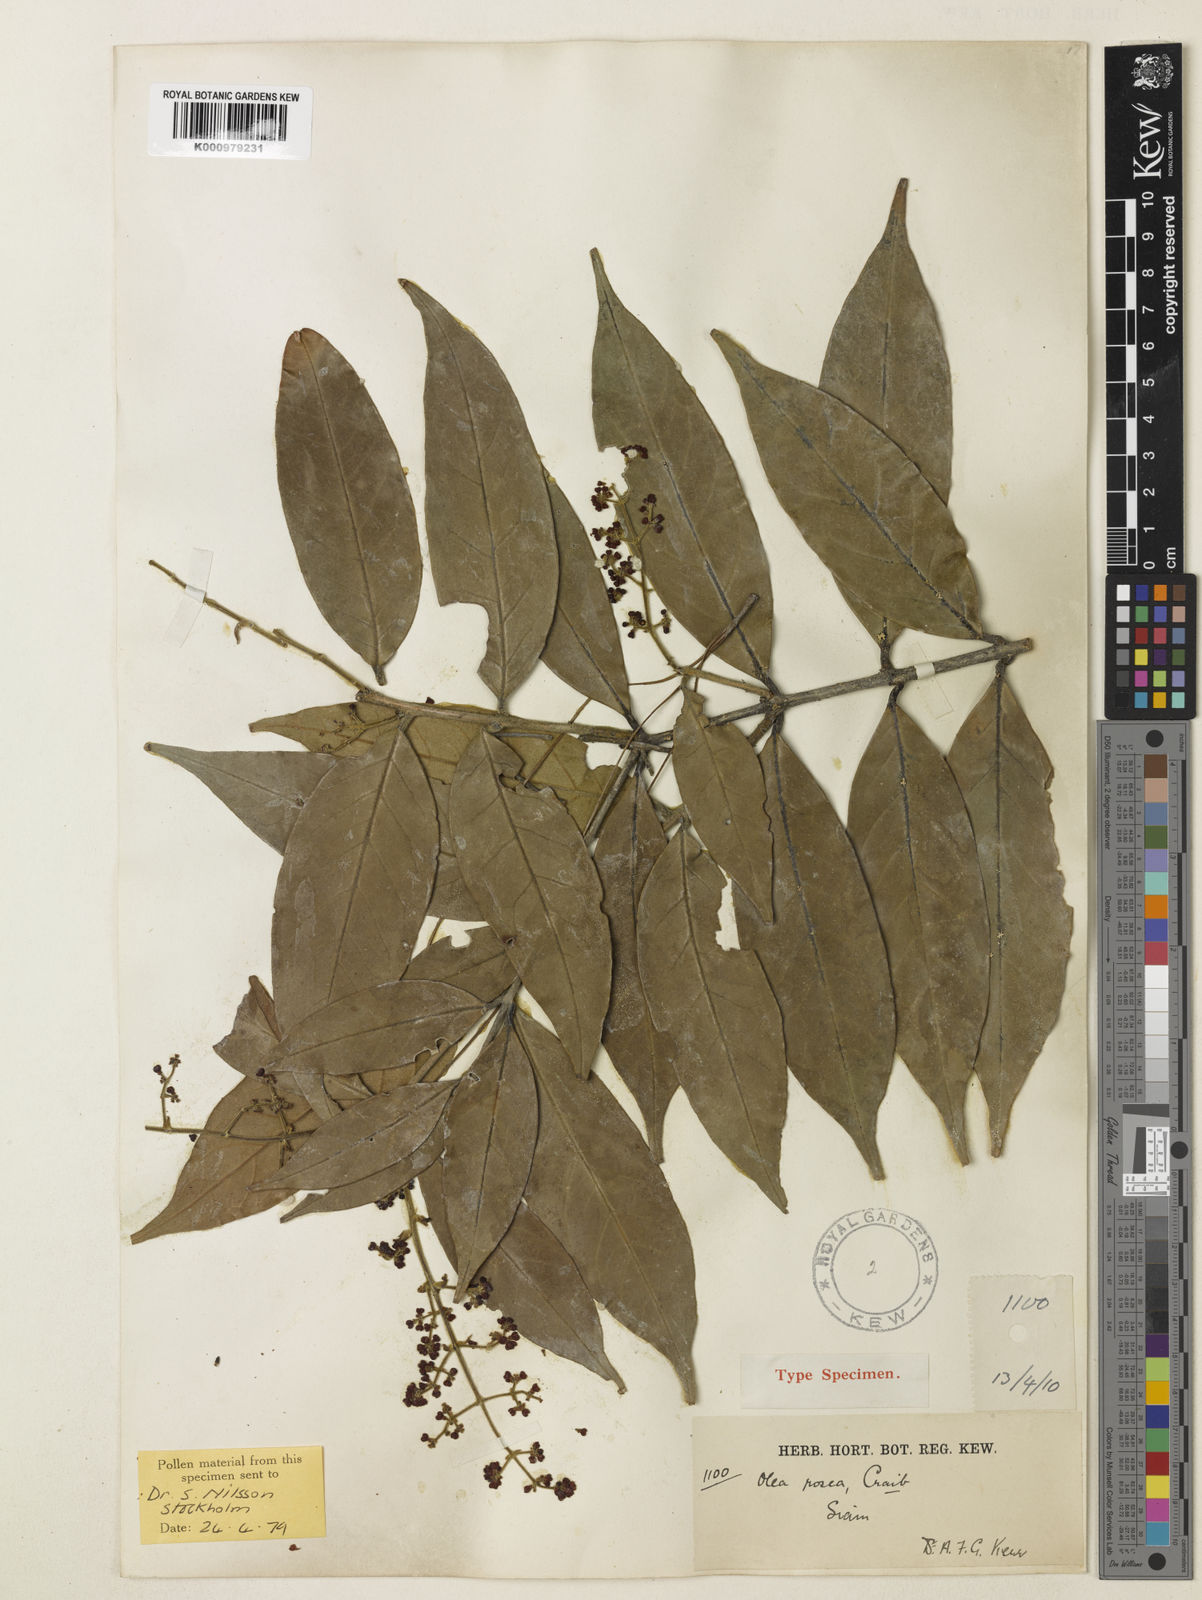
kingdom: Plantae
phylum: Tracheophyta
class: Magnoliopsida
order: Lamiales
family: Oleaceae
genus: Tetrapilus
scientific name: Tetrapilus roseus
